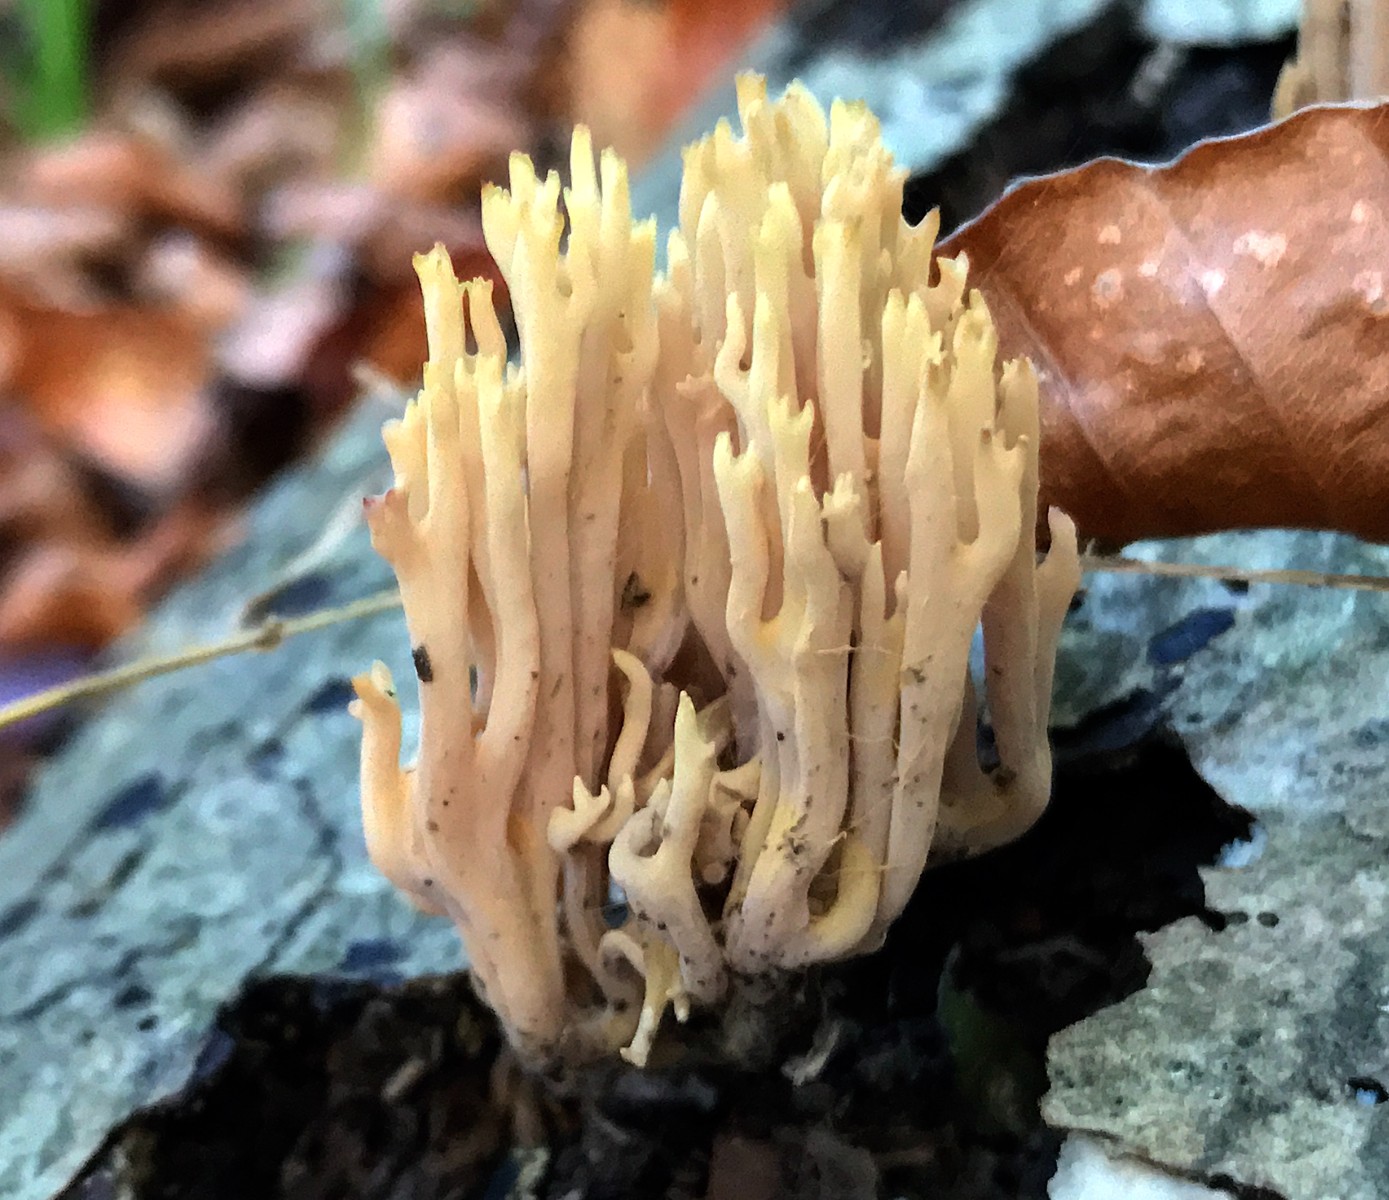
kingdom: Fungi
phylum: Basidiomycota
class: Agaricomycetes
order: Gomphales
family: Gomphaceae
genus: Ramaria
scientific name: Ramaria stricta
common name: rank koralsvamp
